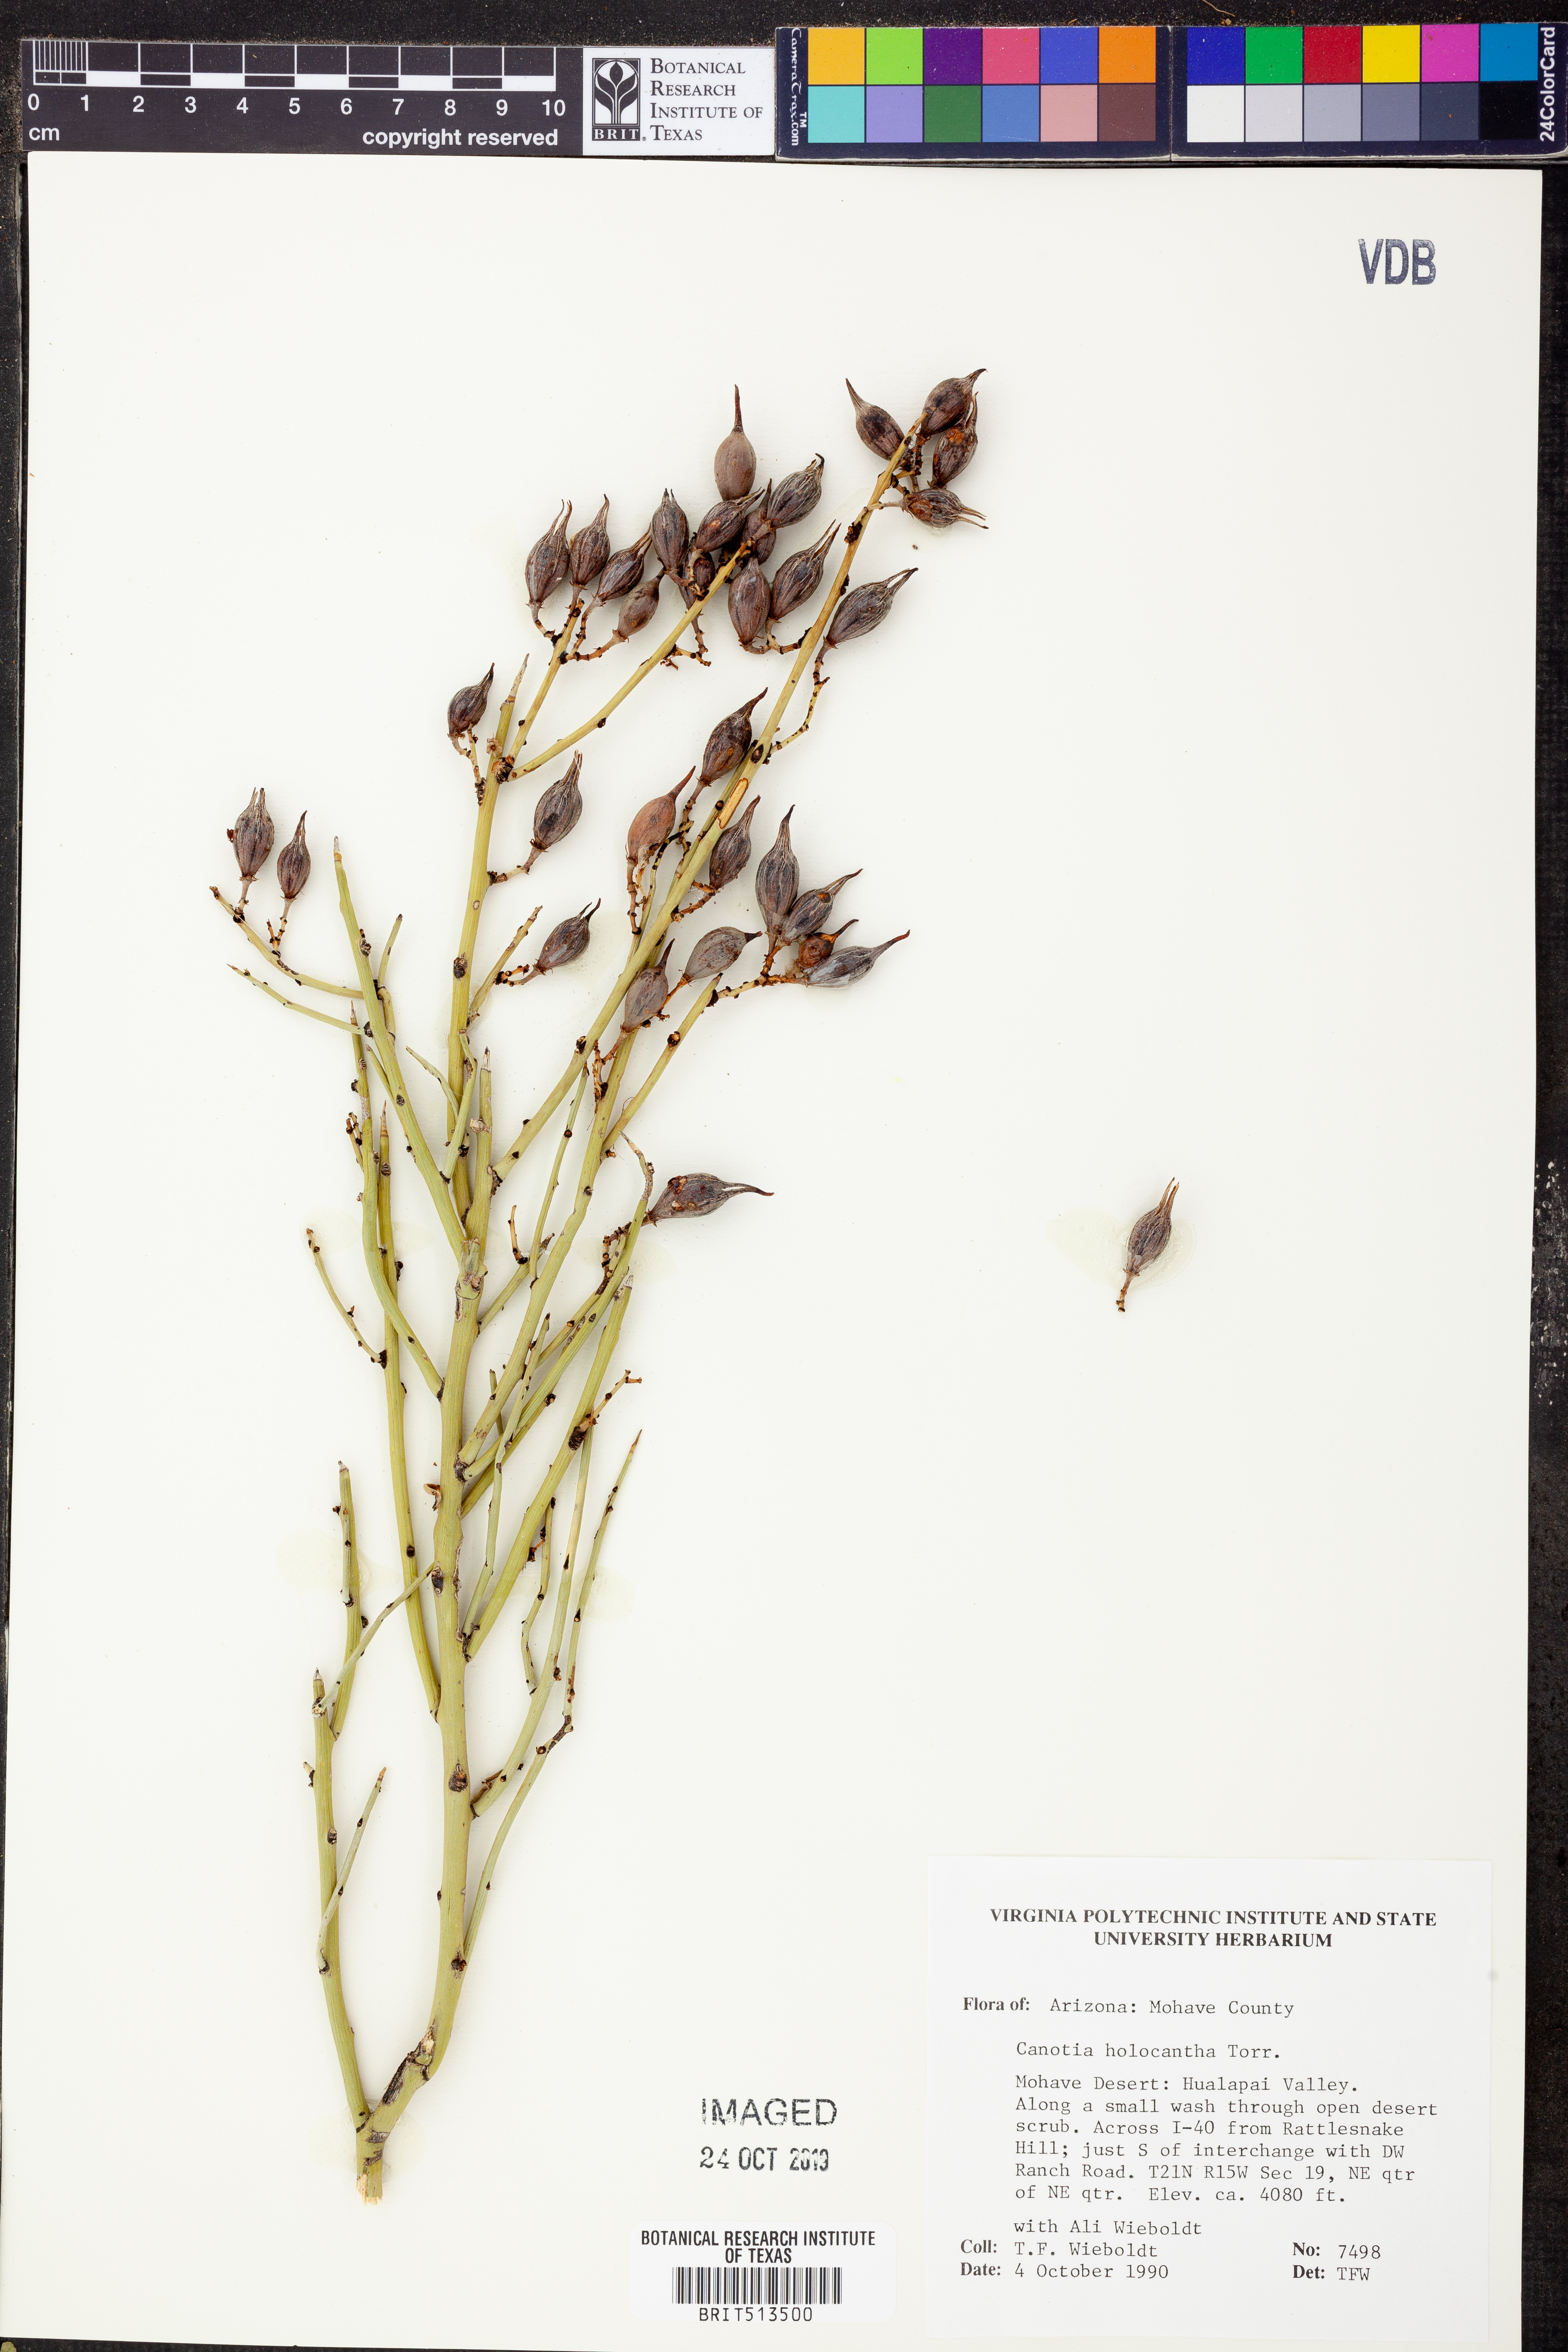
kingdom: Plantae
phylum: Tracheophyta
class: Magnoliopsida
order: Celastrales
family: Celastraceae
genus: Canotia
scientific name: Canotia holacantha
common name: Crucifixion thorns
